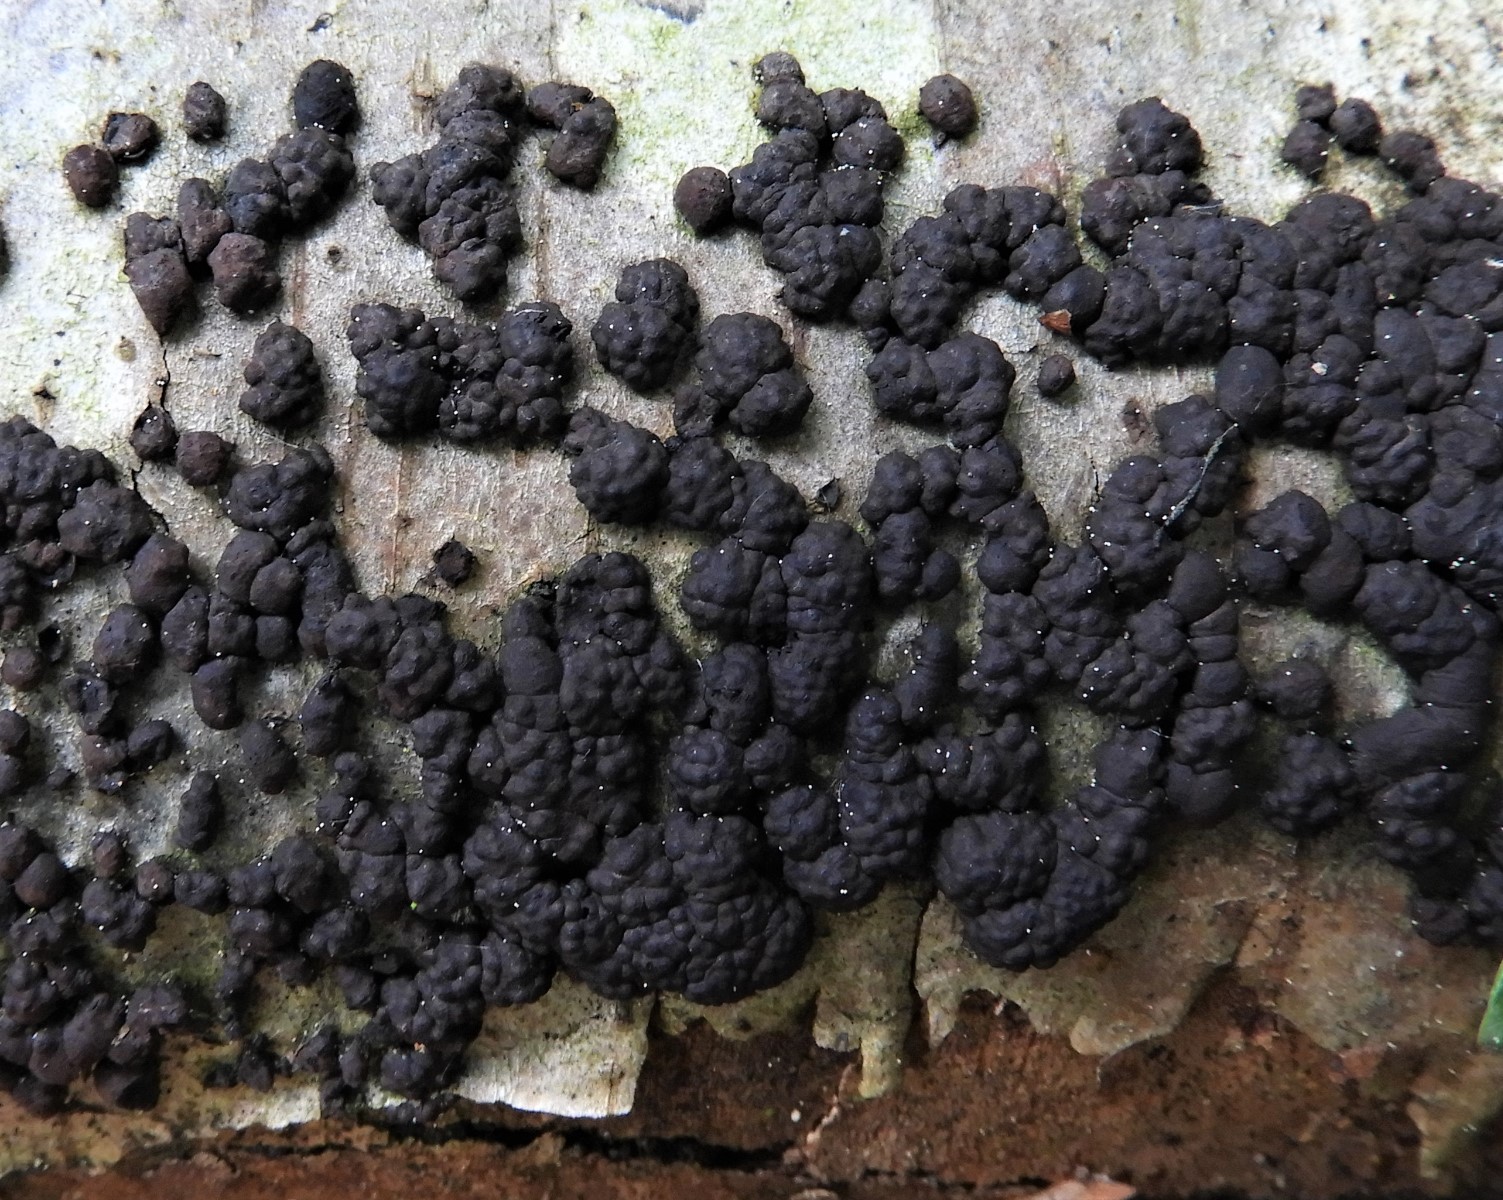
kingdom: Fungi
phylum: Ascomycota
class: Sordariomycetes
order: Xylariales
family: Hypoxylaceae
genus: Jackrogersella
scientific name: Jackrogersella cohaerens
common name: sammenflydende kulbær
